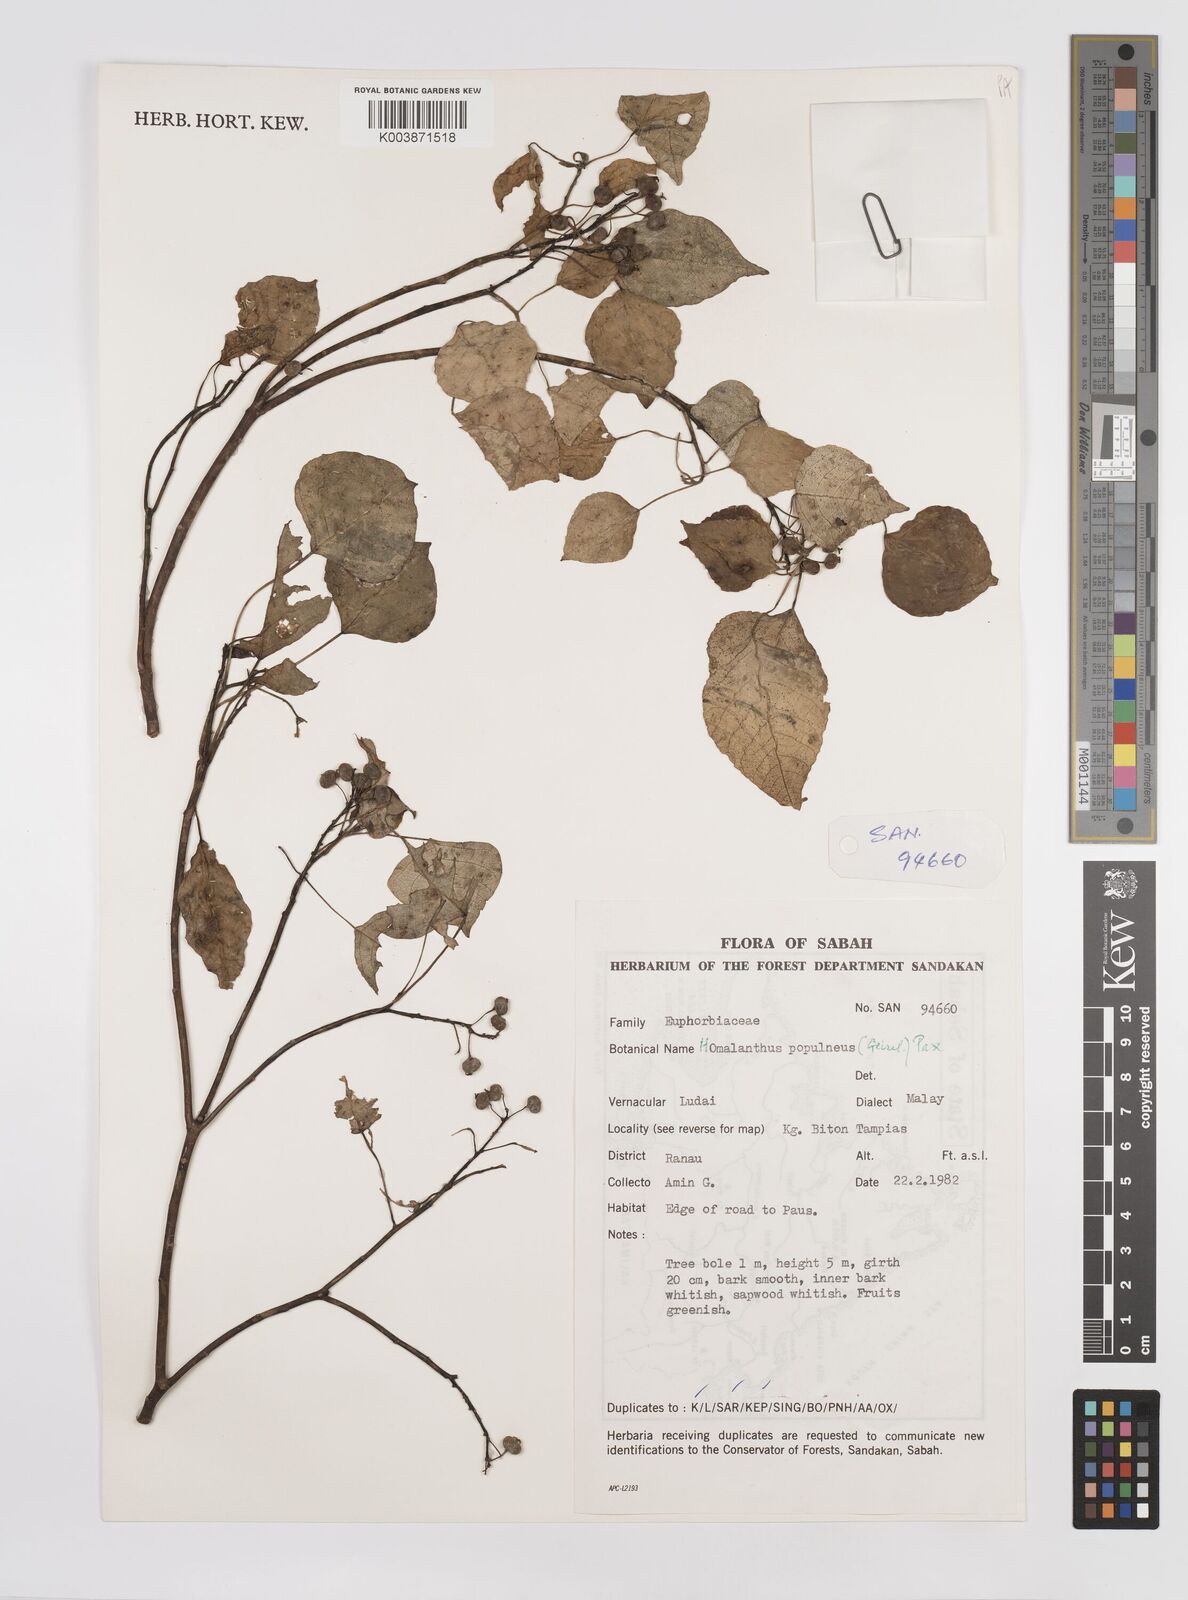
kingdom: Plantae
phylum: Tracheophyta
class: Magnoliopsida
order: Malpighiales
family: Euphorbiaceae
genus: Homalanthus
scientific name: Homalanthus populneus
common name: Spurge
